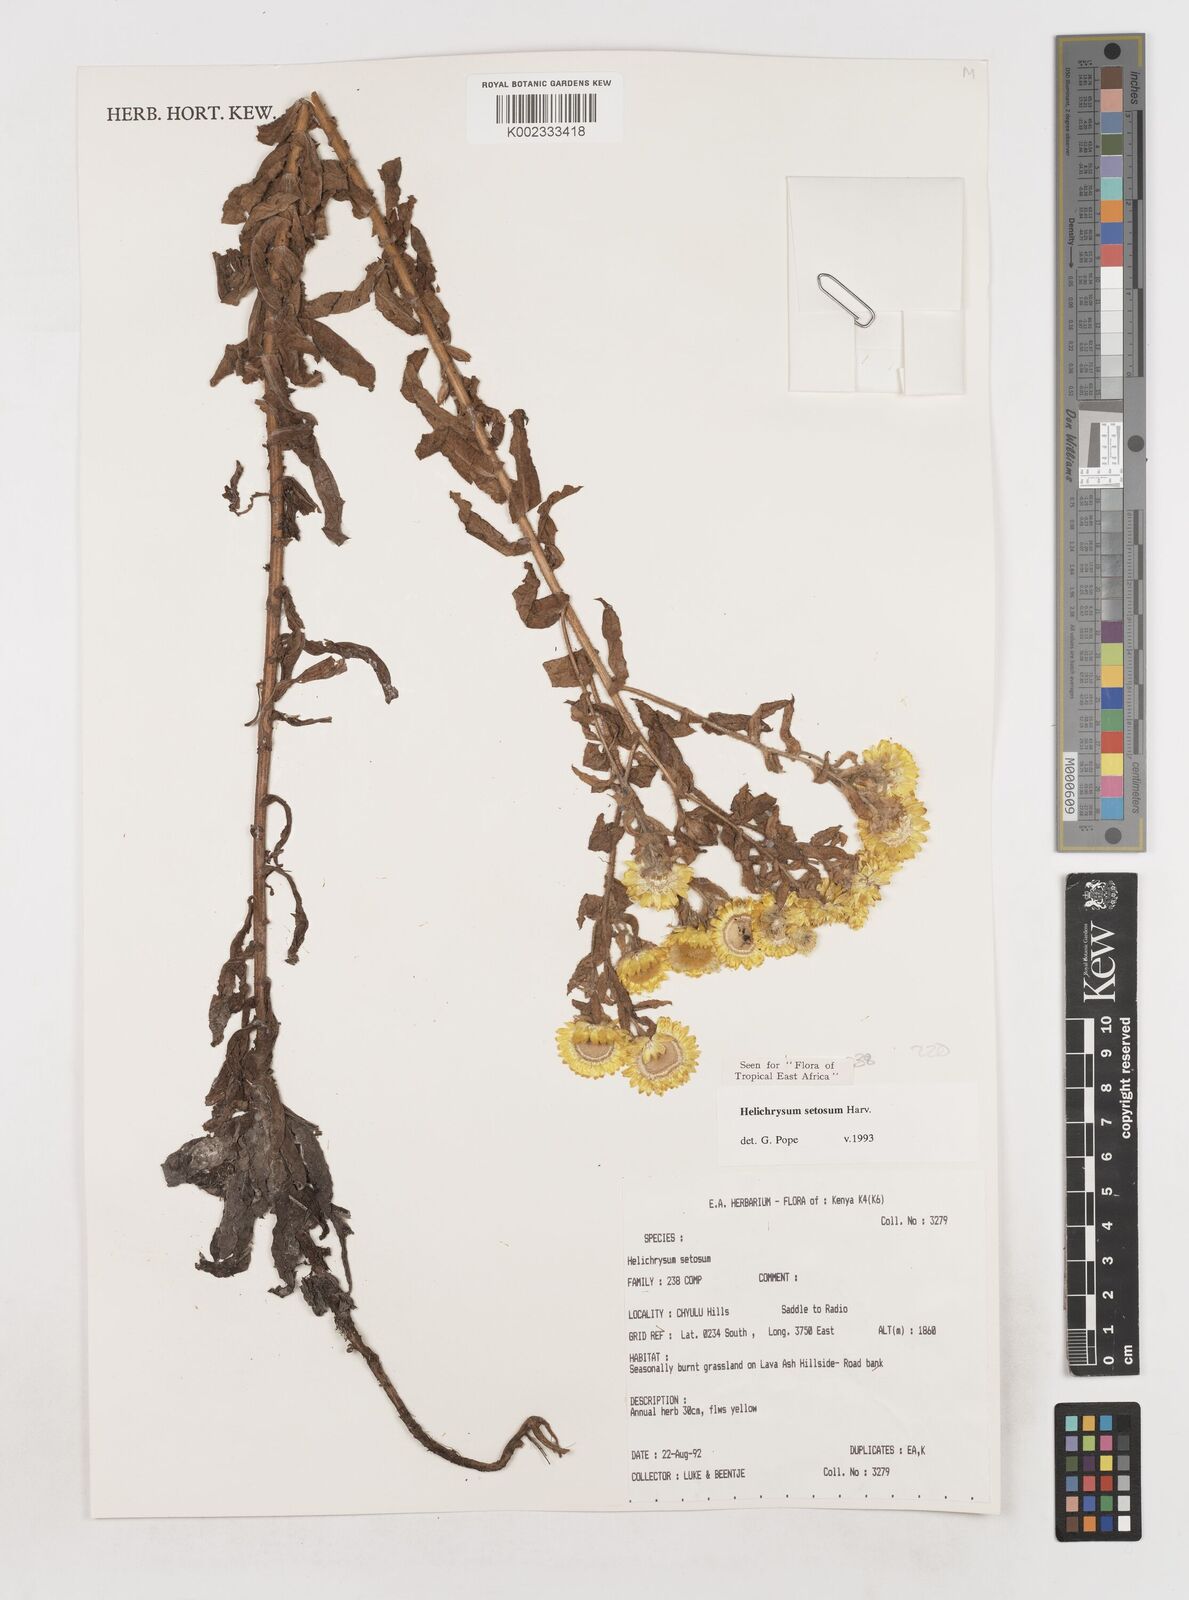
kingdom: Plantae
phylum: Tracheophyta
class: Magnoliopsida
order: Asterales
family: Asteraceae
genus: Helichrysum
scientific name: Helichrysum setosum
